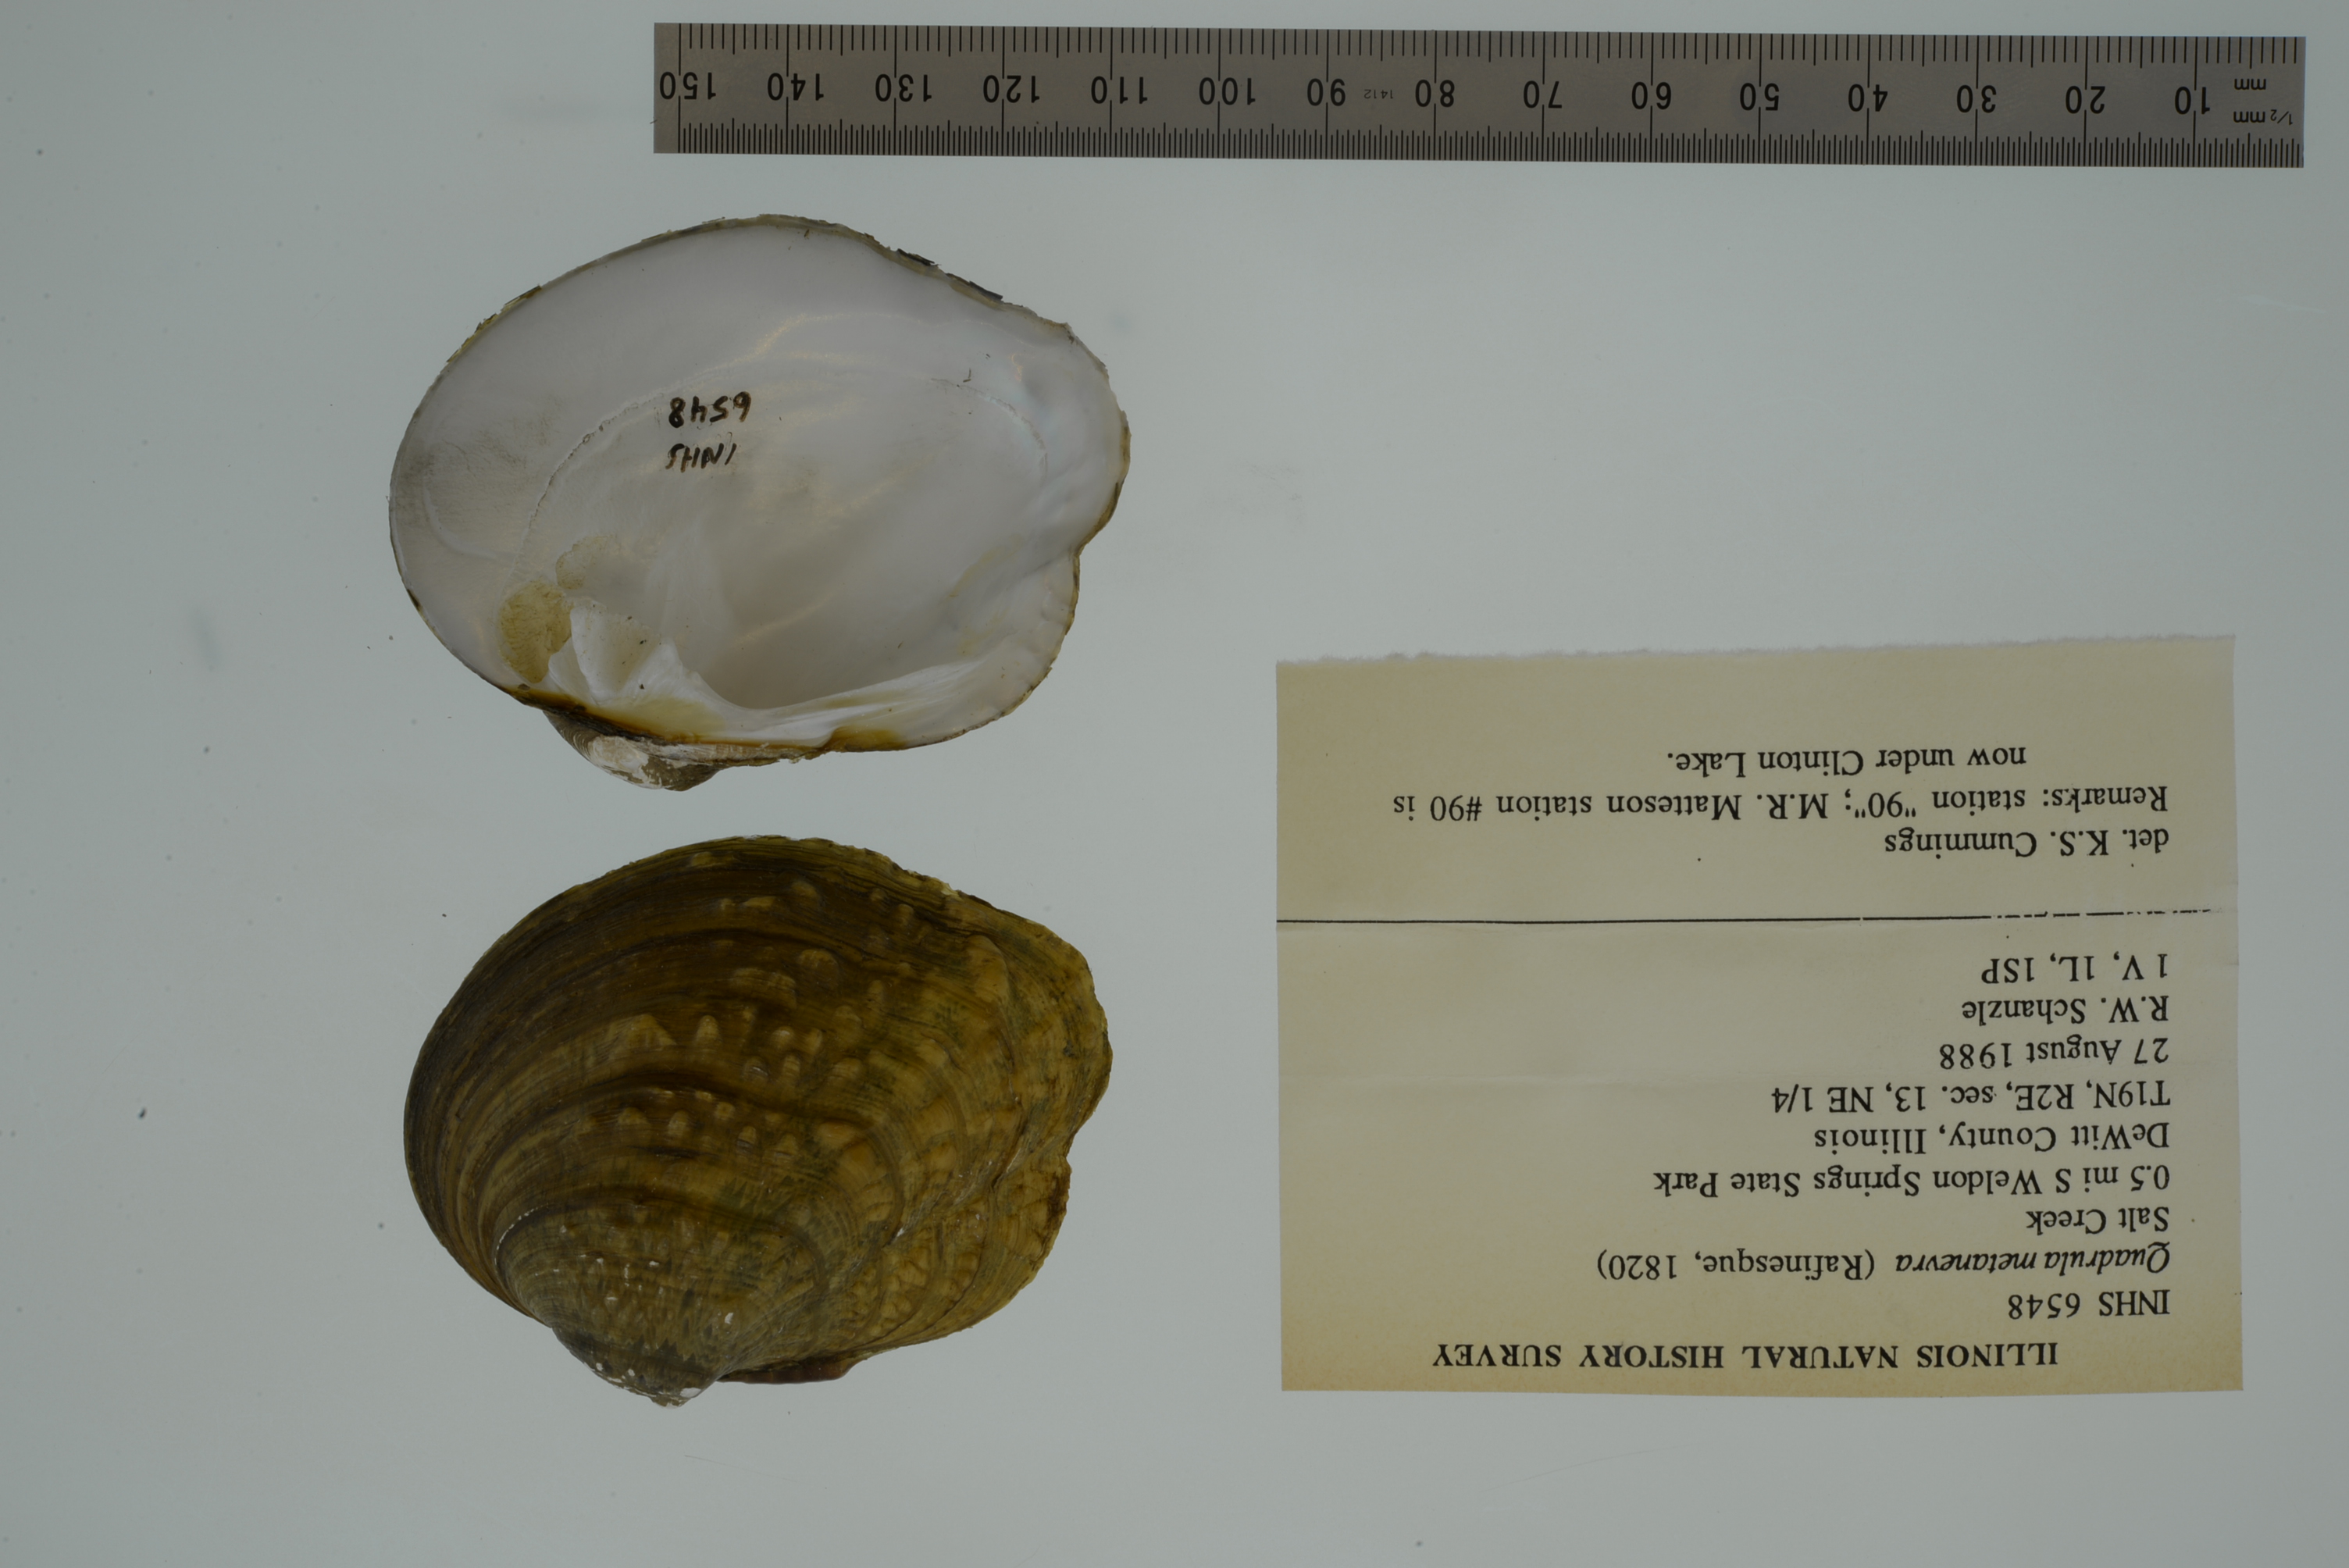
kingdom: Animalia
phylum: Mollusca
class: Bivalvia
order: Unionida
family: Unionidae
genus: Theliderma
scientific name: Theliderma metanevra
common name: Monkeyface
